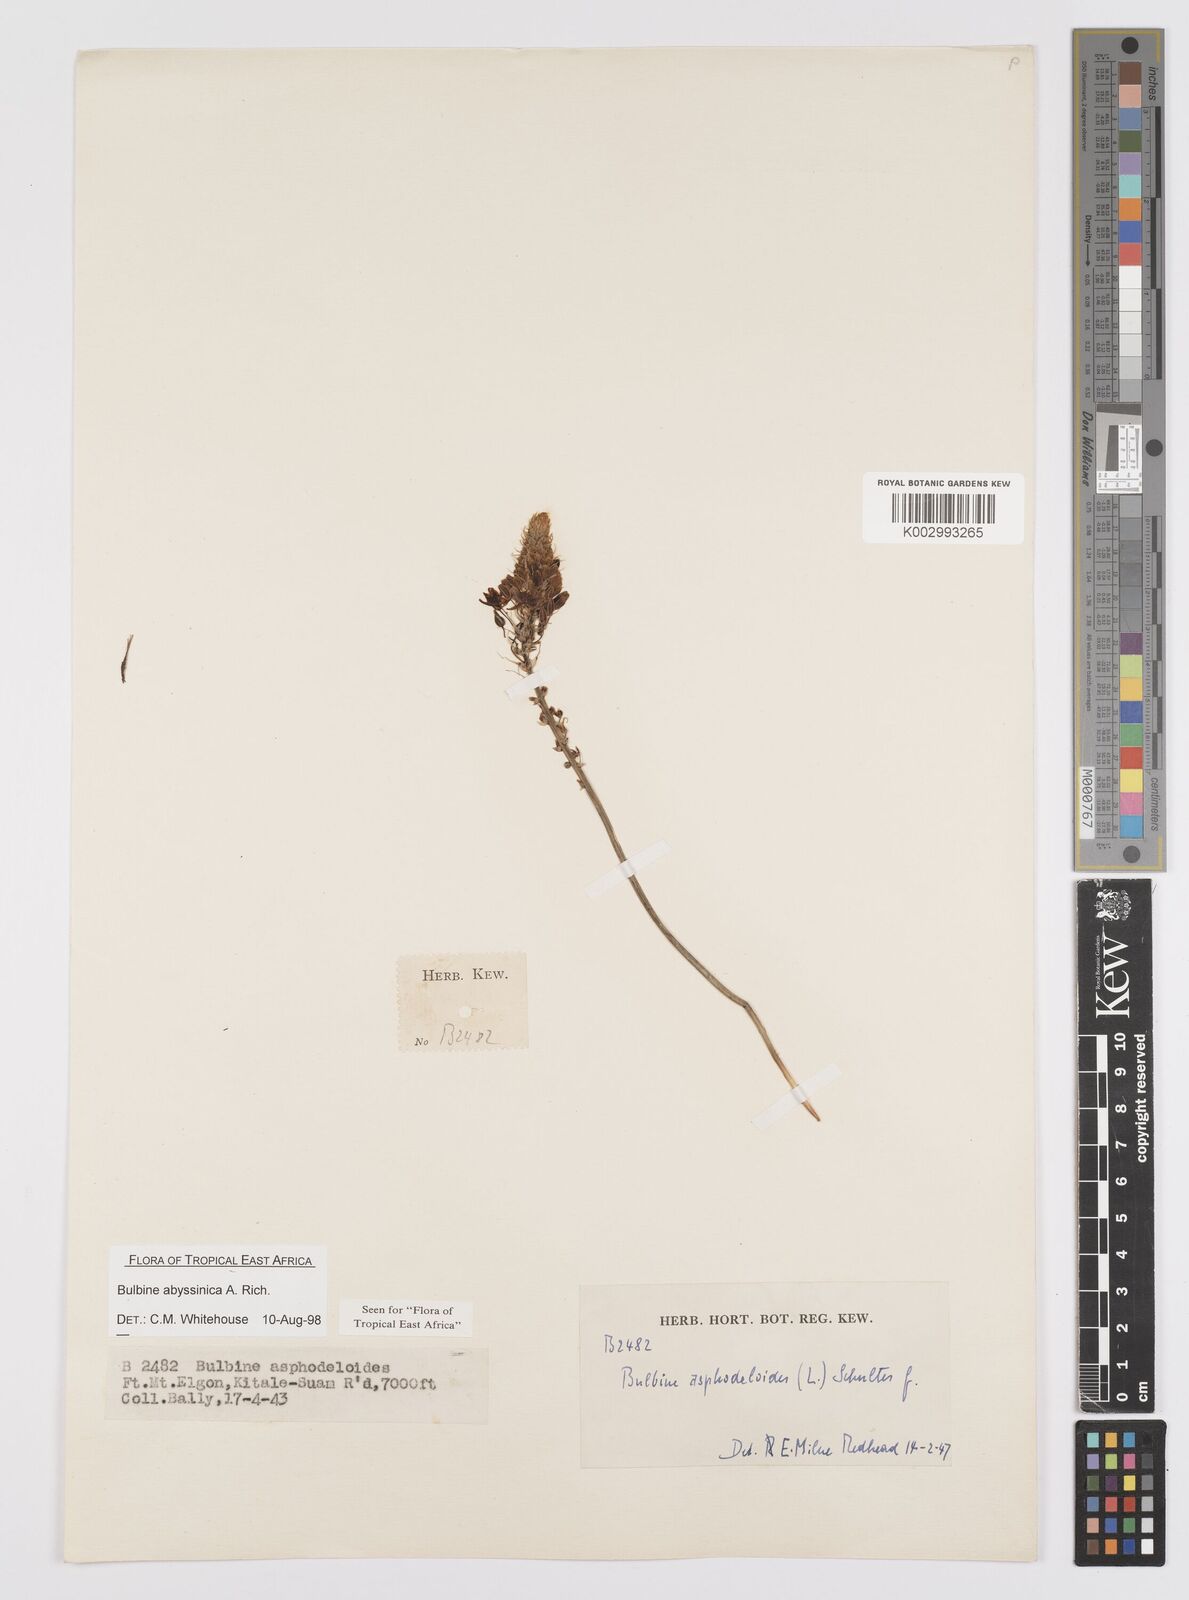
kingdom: Plantae
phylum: Tracheophyta
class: Liliopsida
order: Asparagales
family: Asphodelaceae
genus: Bulbine
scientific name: Bulbine abyssinica
